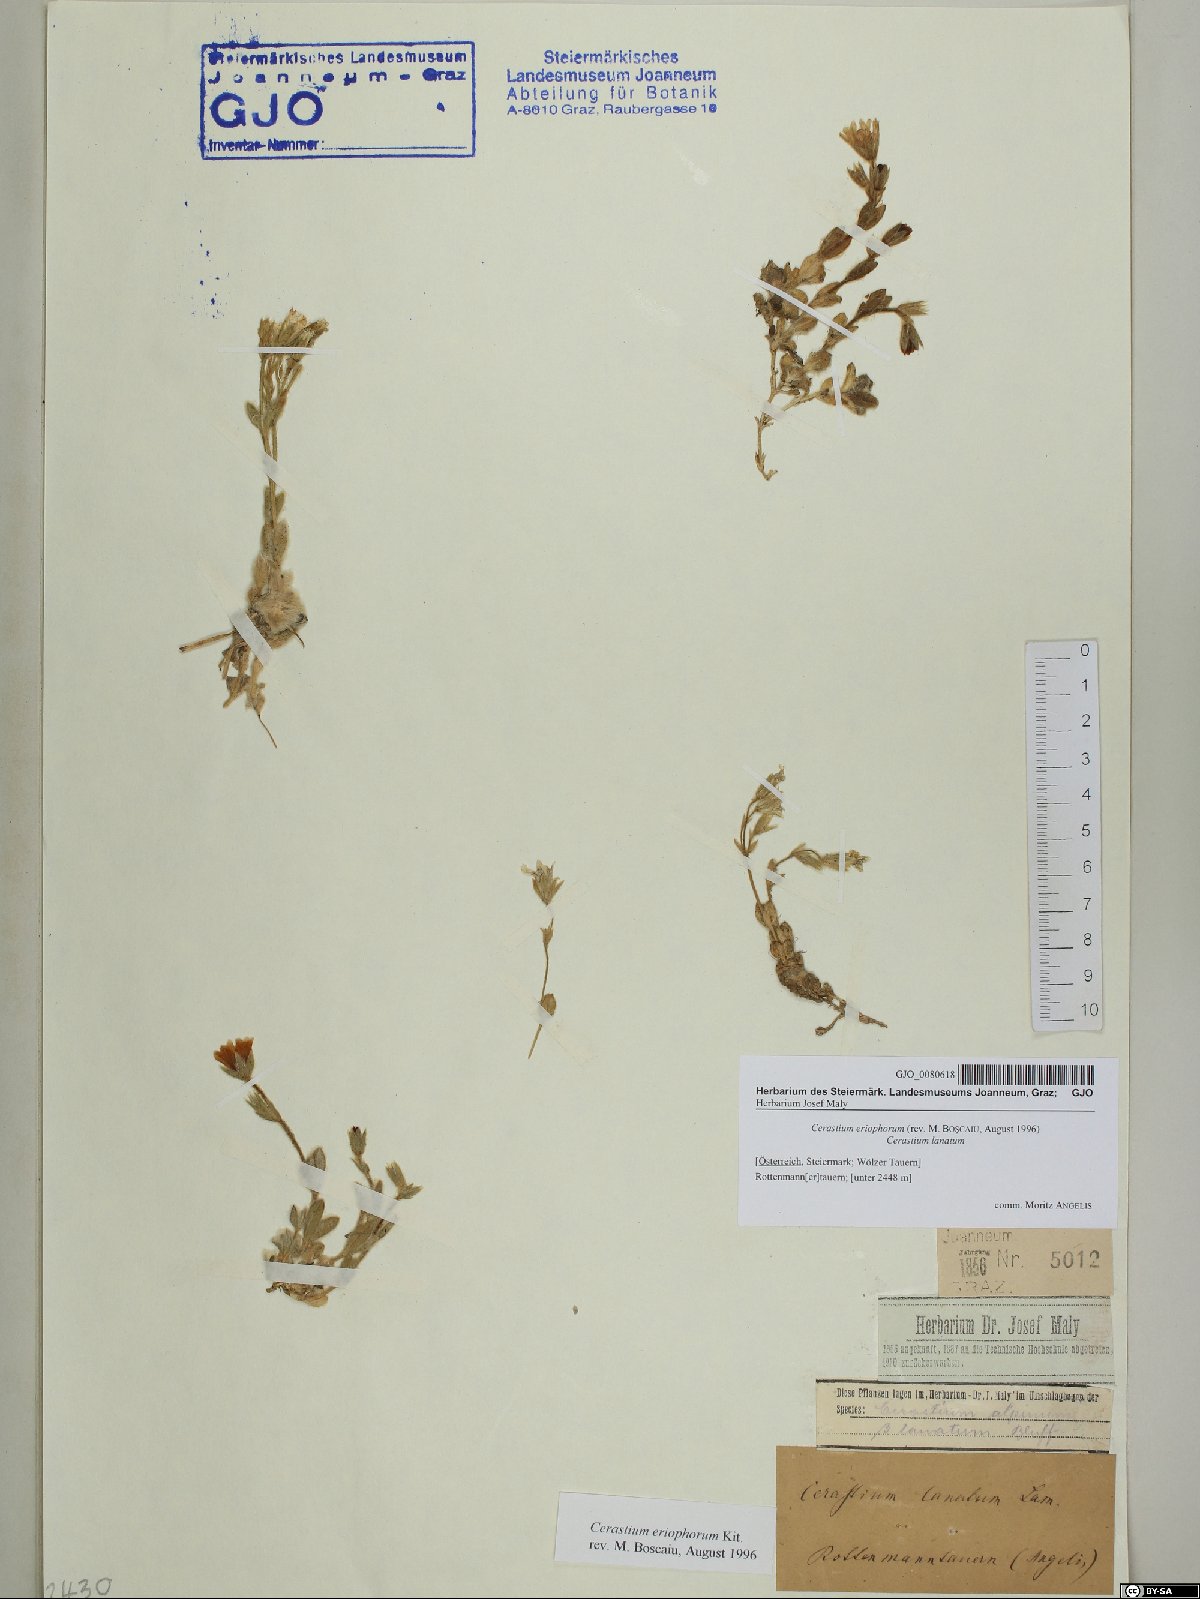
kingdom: Plantae
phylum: Tracheophyta
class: Magnoliopsida
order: Caryophyllales
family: Caryophyllaceae
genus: Cerastium
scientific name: Cerastium eriophorum
